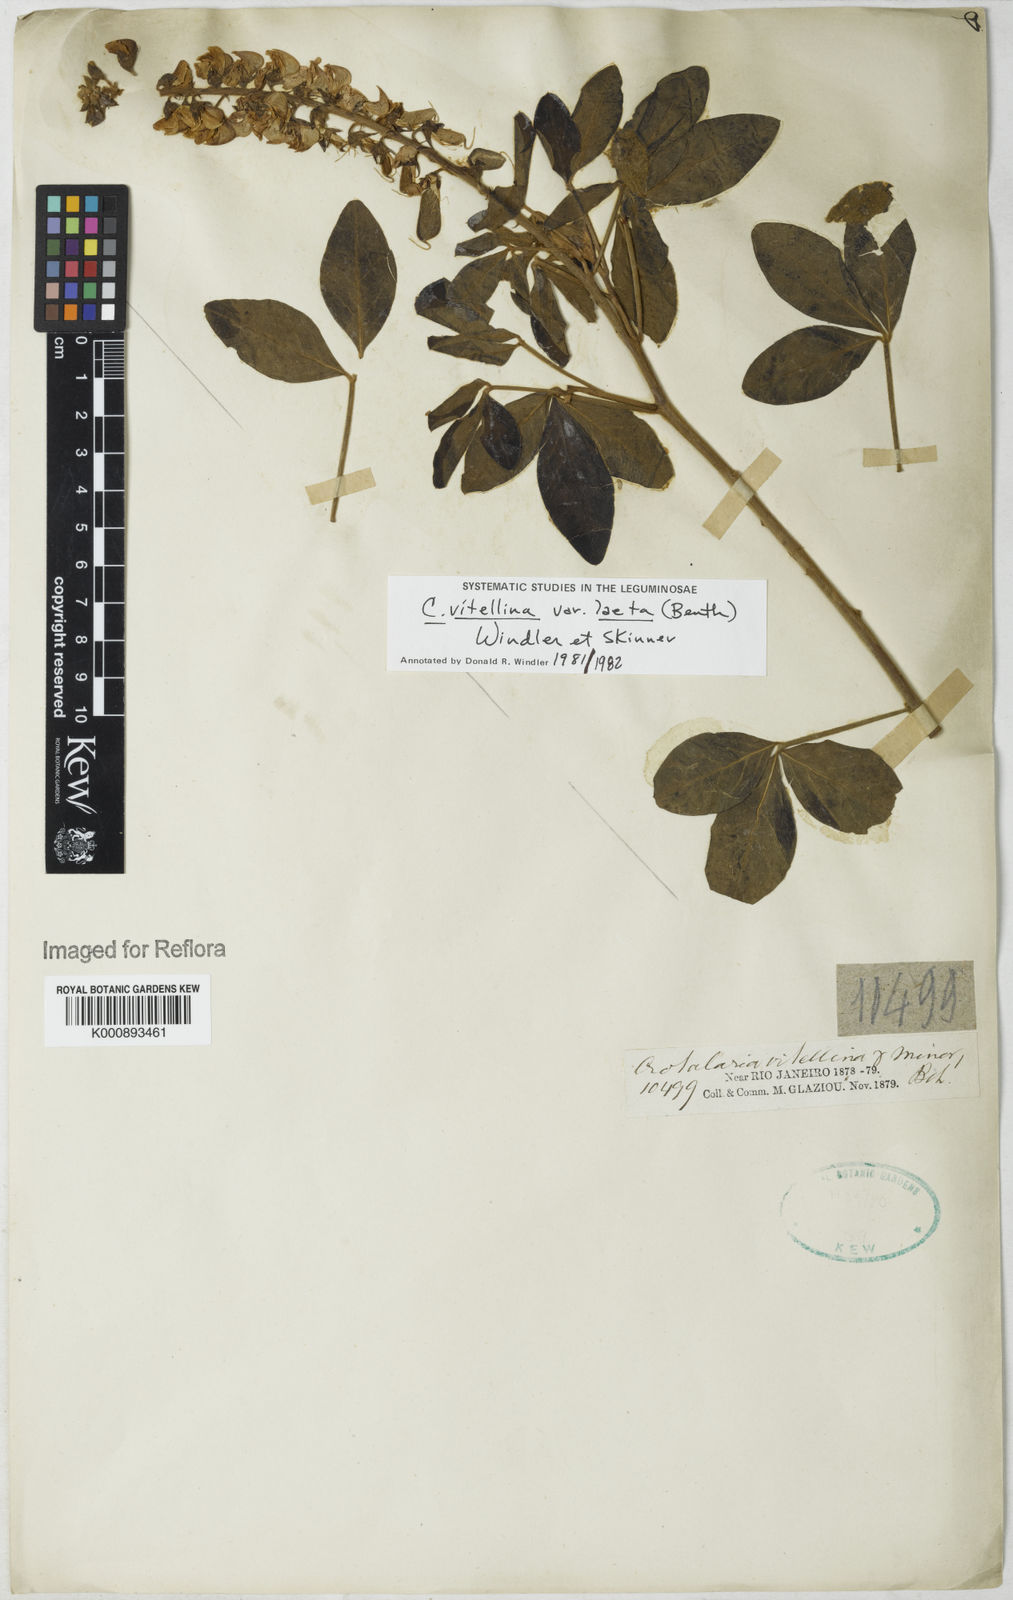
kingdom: Plantae
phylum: Tracheophyta
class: Magnoliopsida
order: Fabales
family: Fabaceae
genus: Crotalaria
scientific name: Crotalaria laeta
